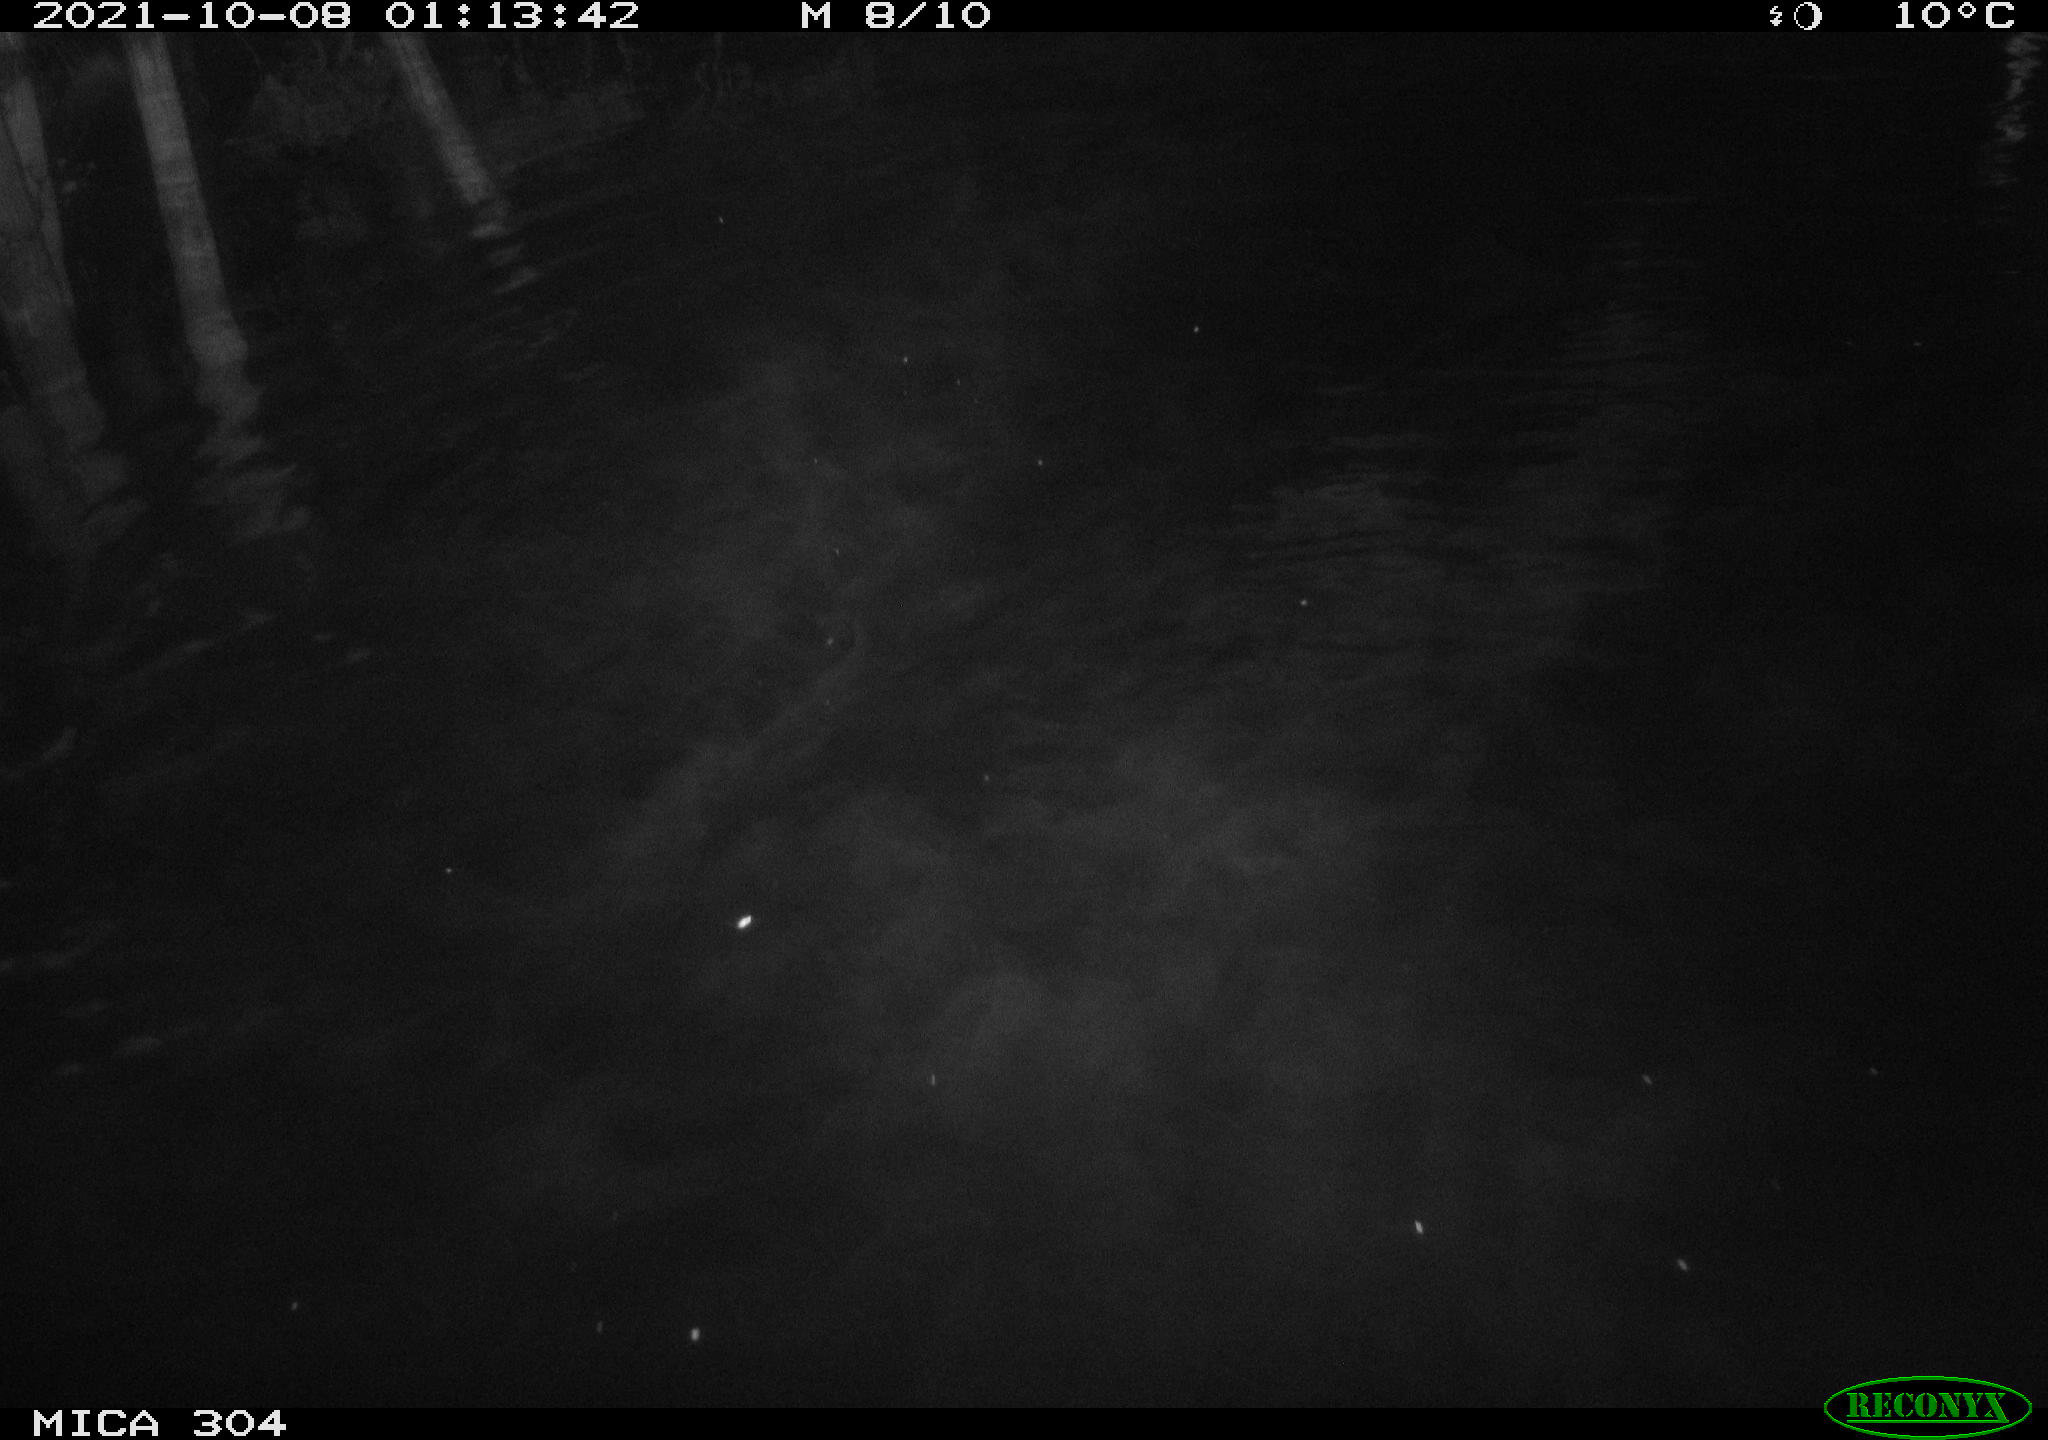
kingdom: Animalia
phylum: Chordata
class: Mammalia
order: Rodentia
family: Cricetidae
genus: Ondatra
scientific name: Ondatra zibethicus
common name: Muskrat
